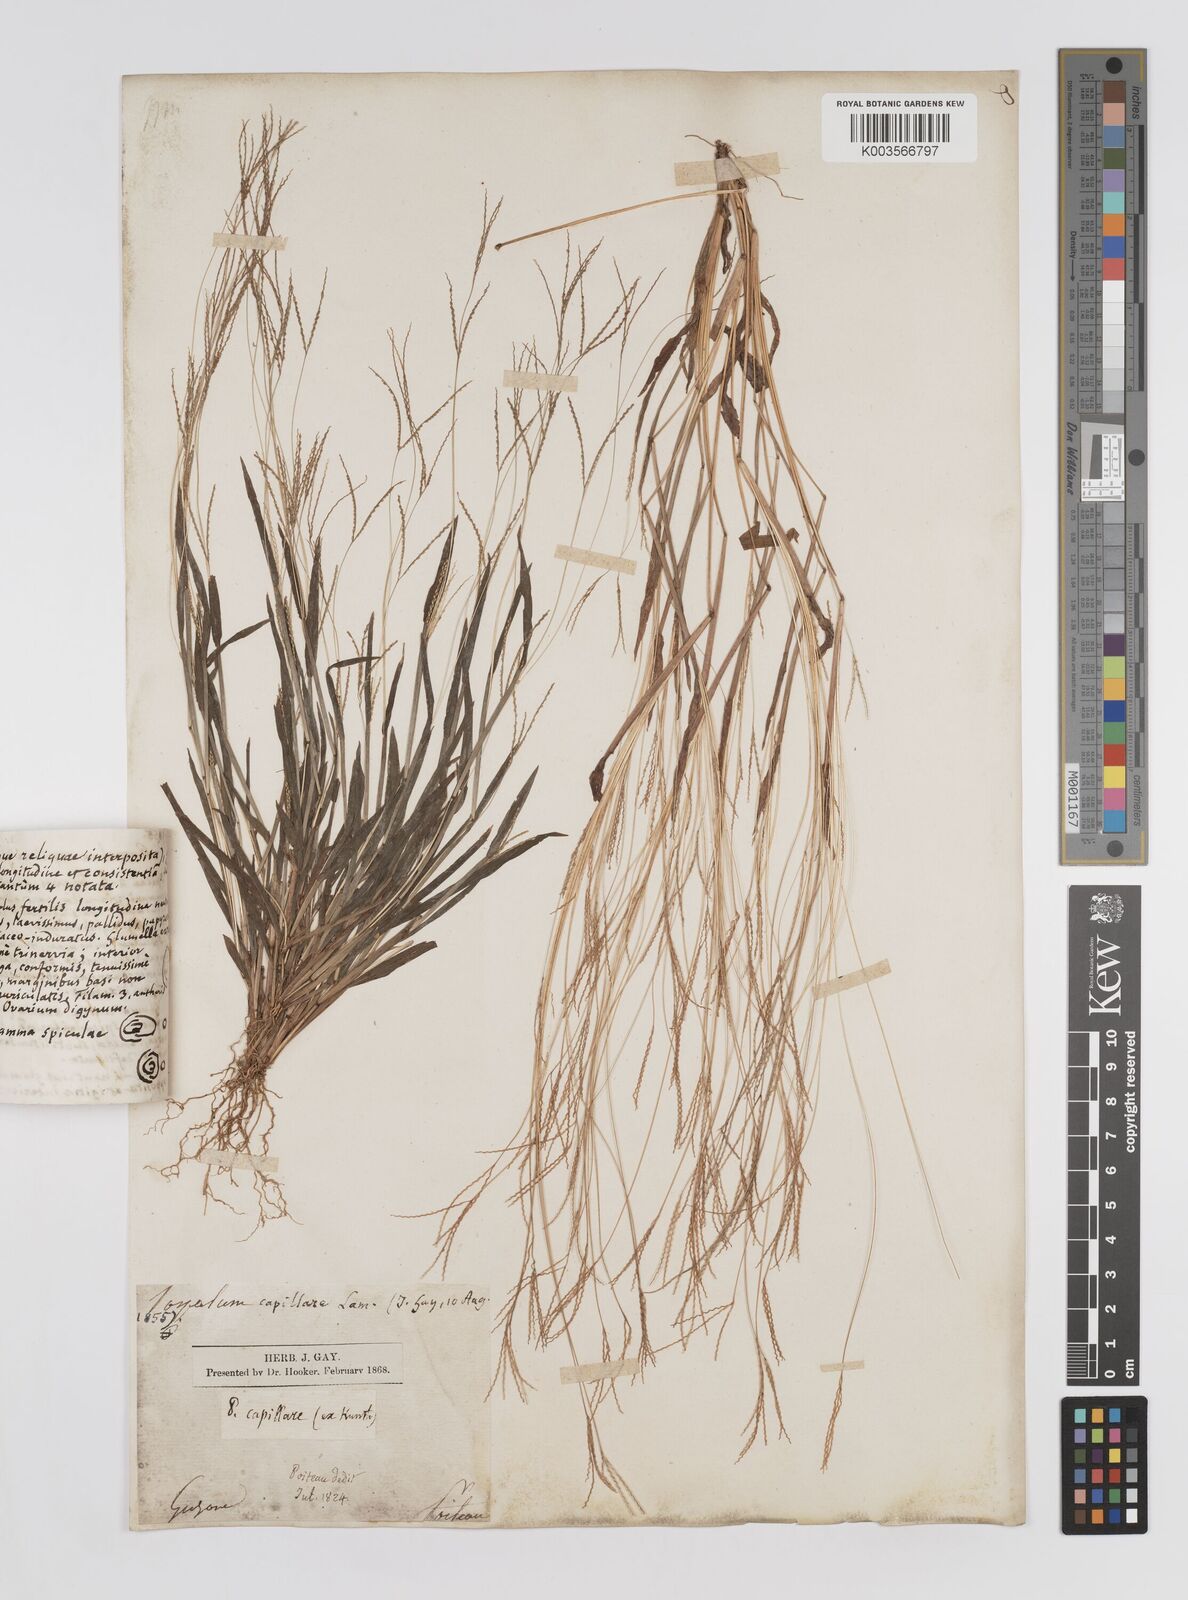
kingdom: Plantae
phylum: Tracheophyta
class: Liliopsida
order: Poales
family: Poaceae
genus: Axonopus
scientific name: Axonopus capillaris
